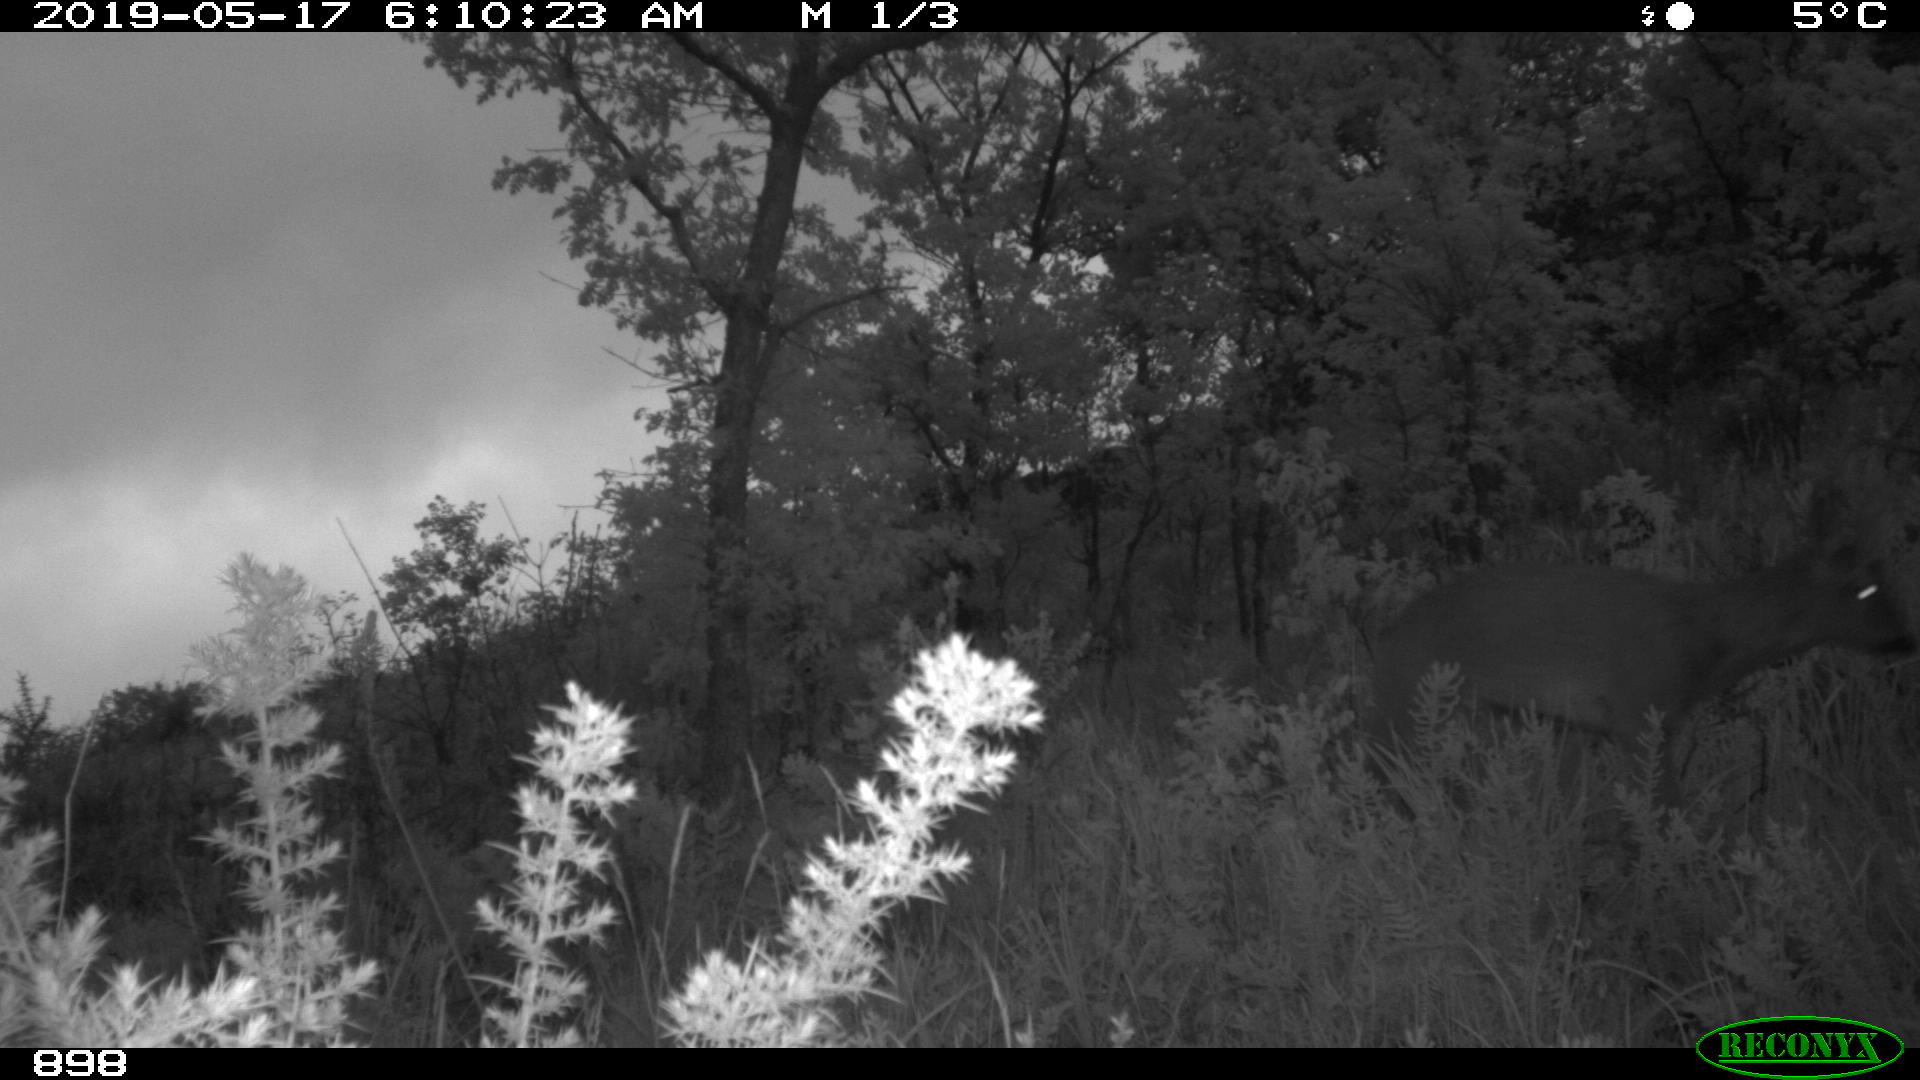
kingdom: Animalia
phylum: Chordata
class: Mammalia
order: Artiodactyla
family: Cervidae
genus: Capreolus
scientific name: Capreolus capreolus
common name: Western roe deer
